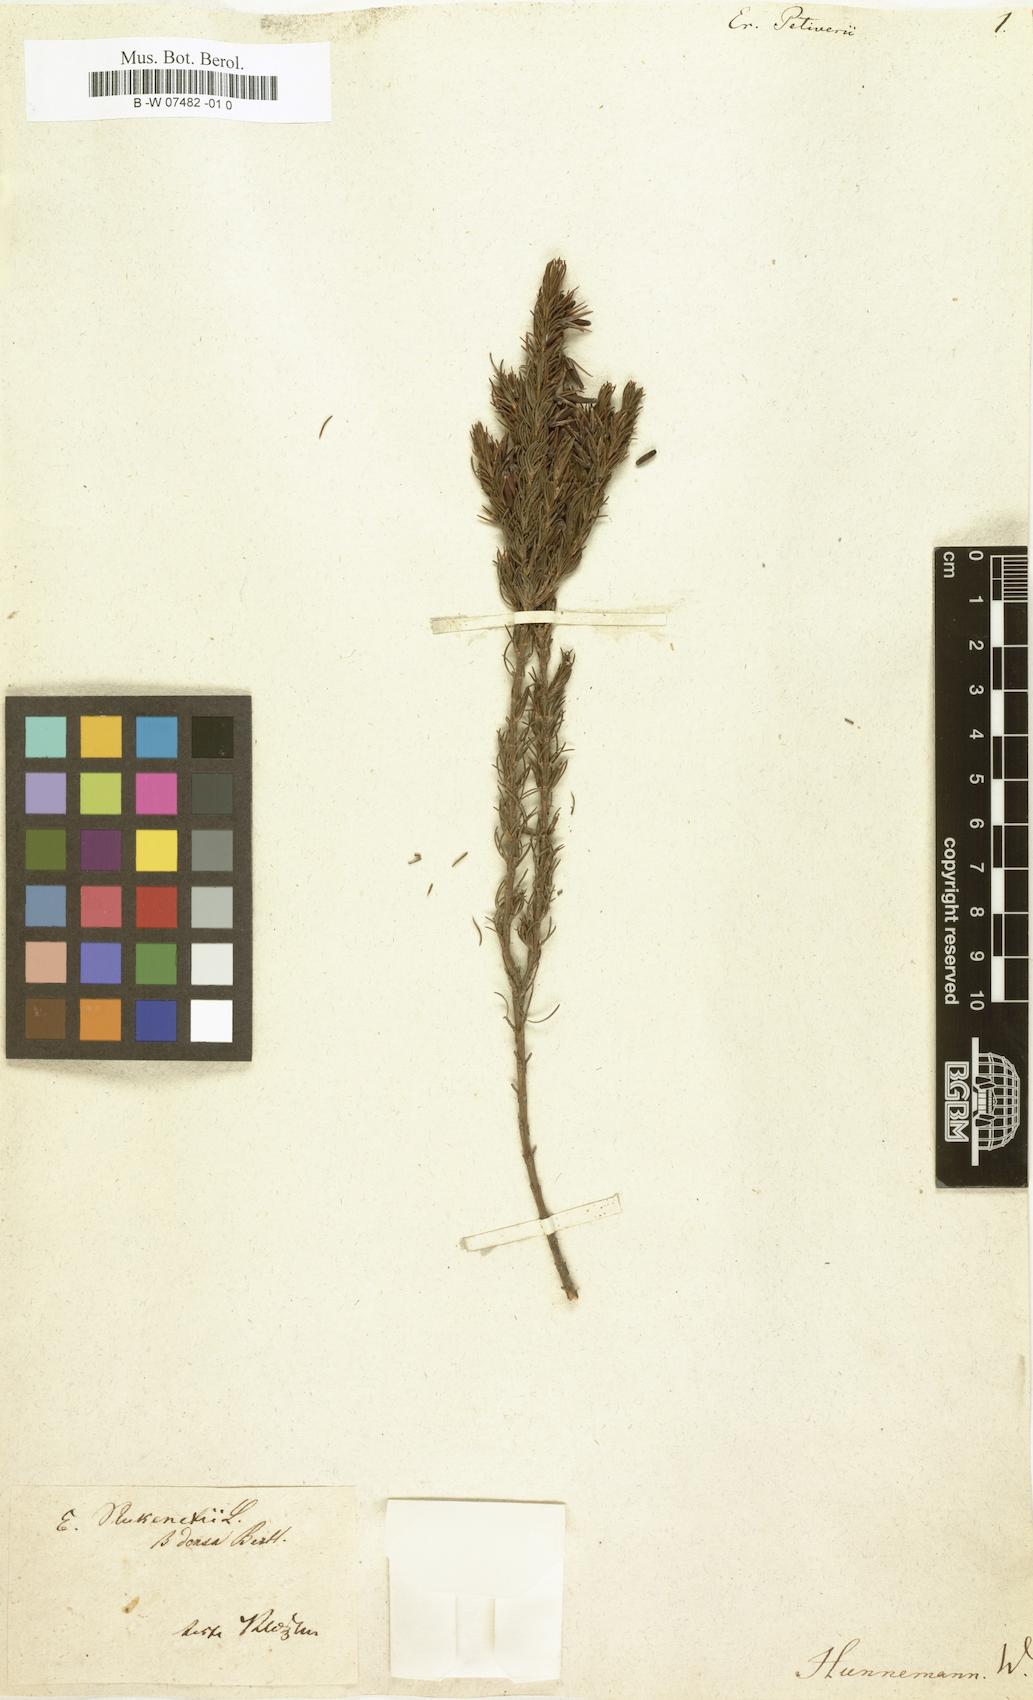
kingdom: Plantae
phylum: Tracheophyta
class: Magnoliopsida
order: Ericales
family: Ericaceae
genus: Erica
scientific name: Erica coccinea
